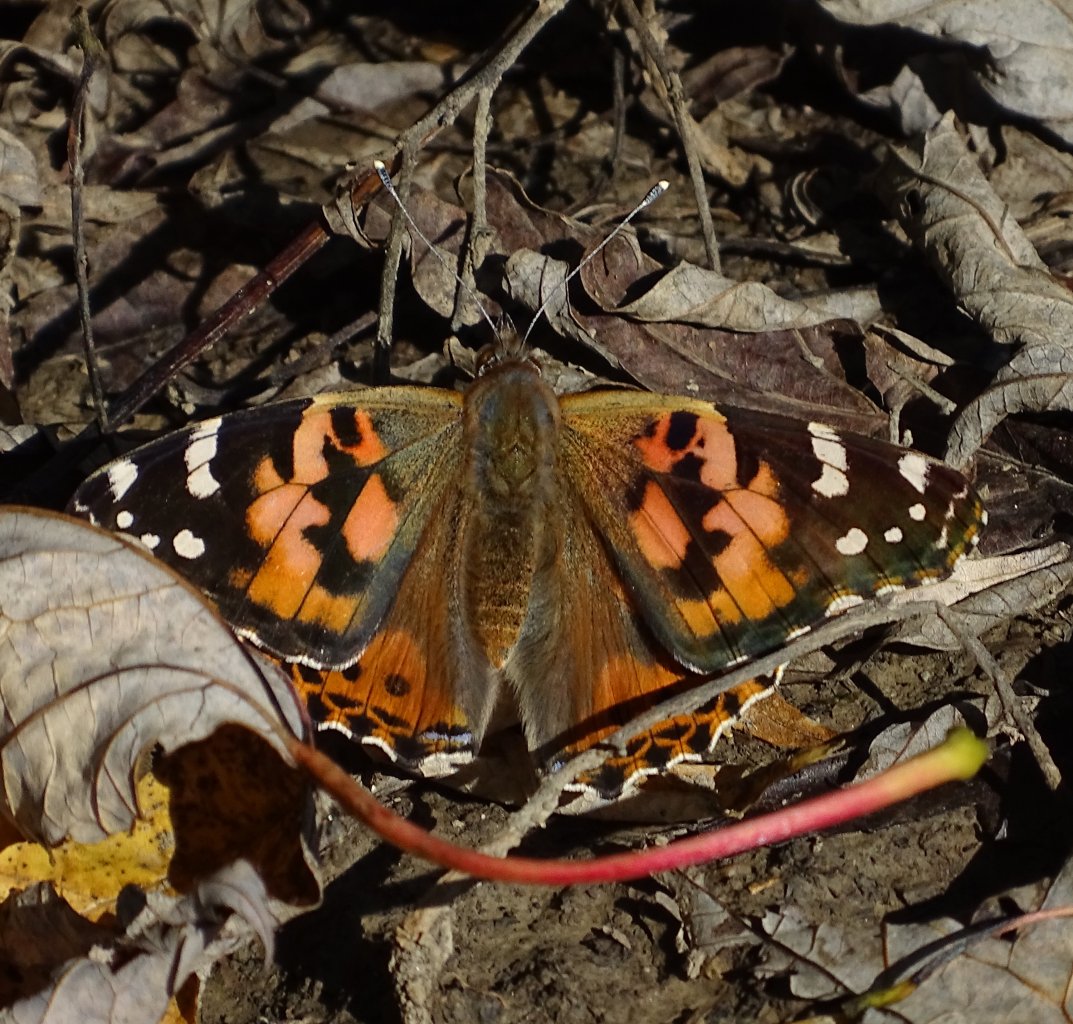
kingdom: Animalia
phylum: Arthropoda
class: Insecta
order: Lepidoptera
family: Nymphalidae
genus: Vanessa
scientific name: Vanessa cardui
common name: Painted Lady
